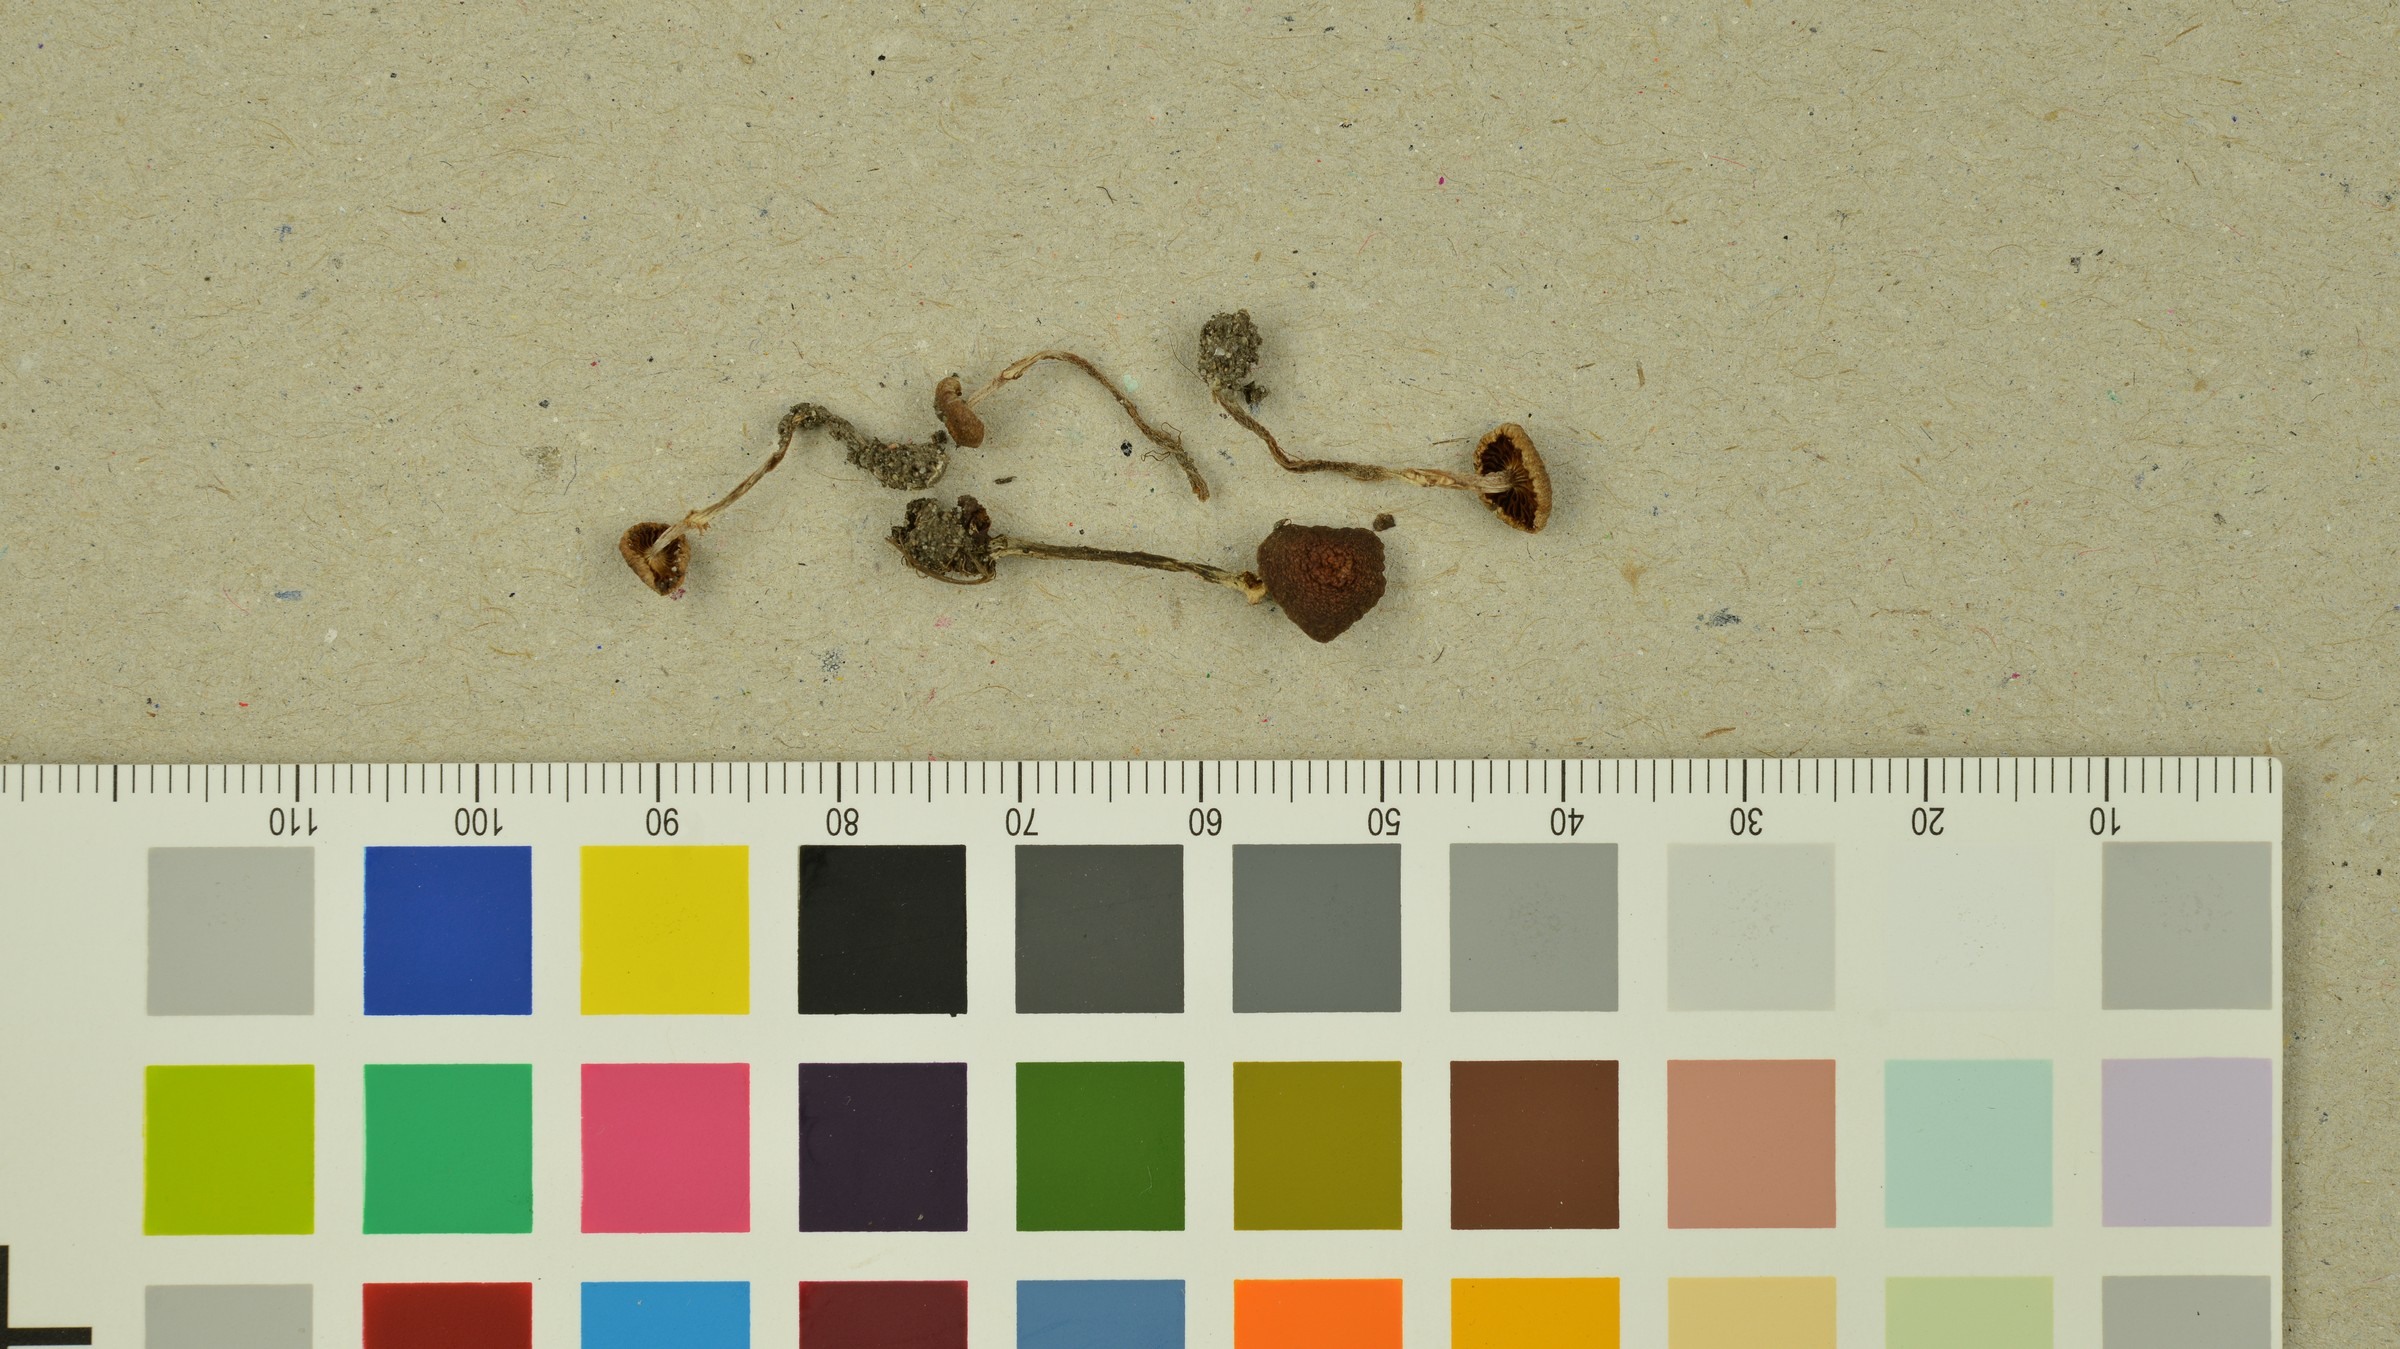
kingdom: Fungi
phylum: Basidiomycota
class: Agaricomycetes
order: Agaricales
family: Cortinariaceae
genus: Cortinarius
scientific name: Cortinarius parvannulatus
